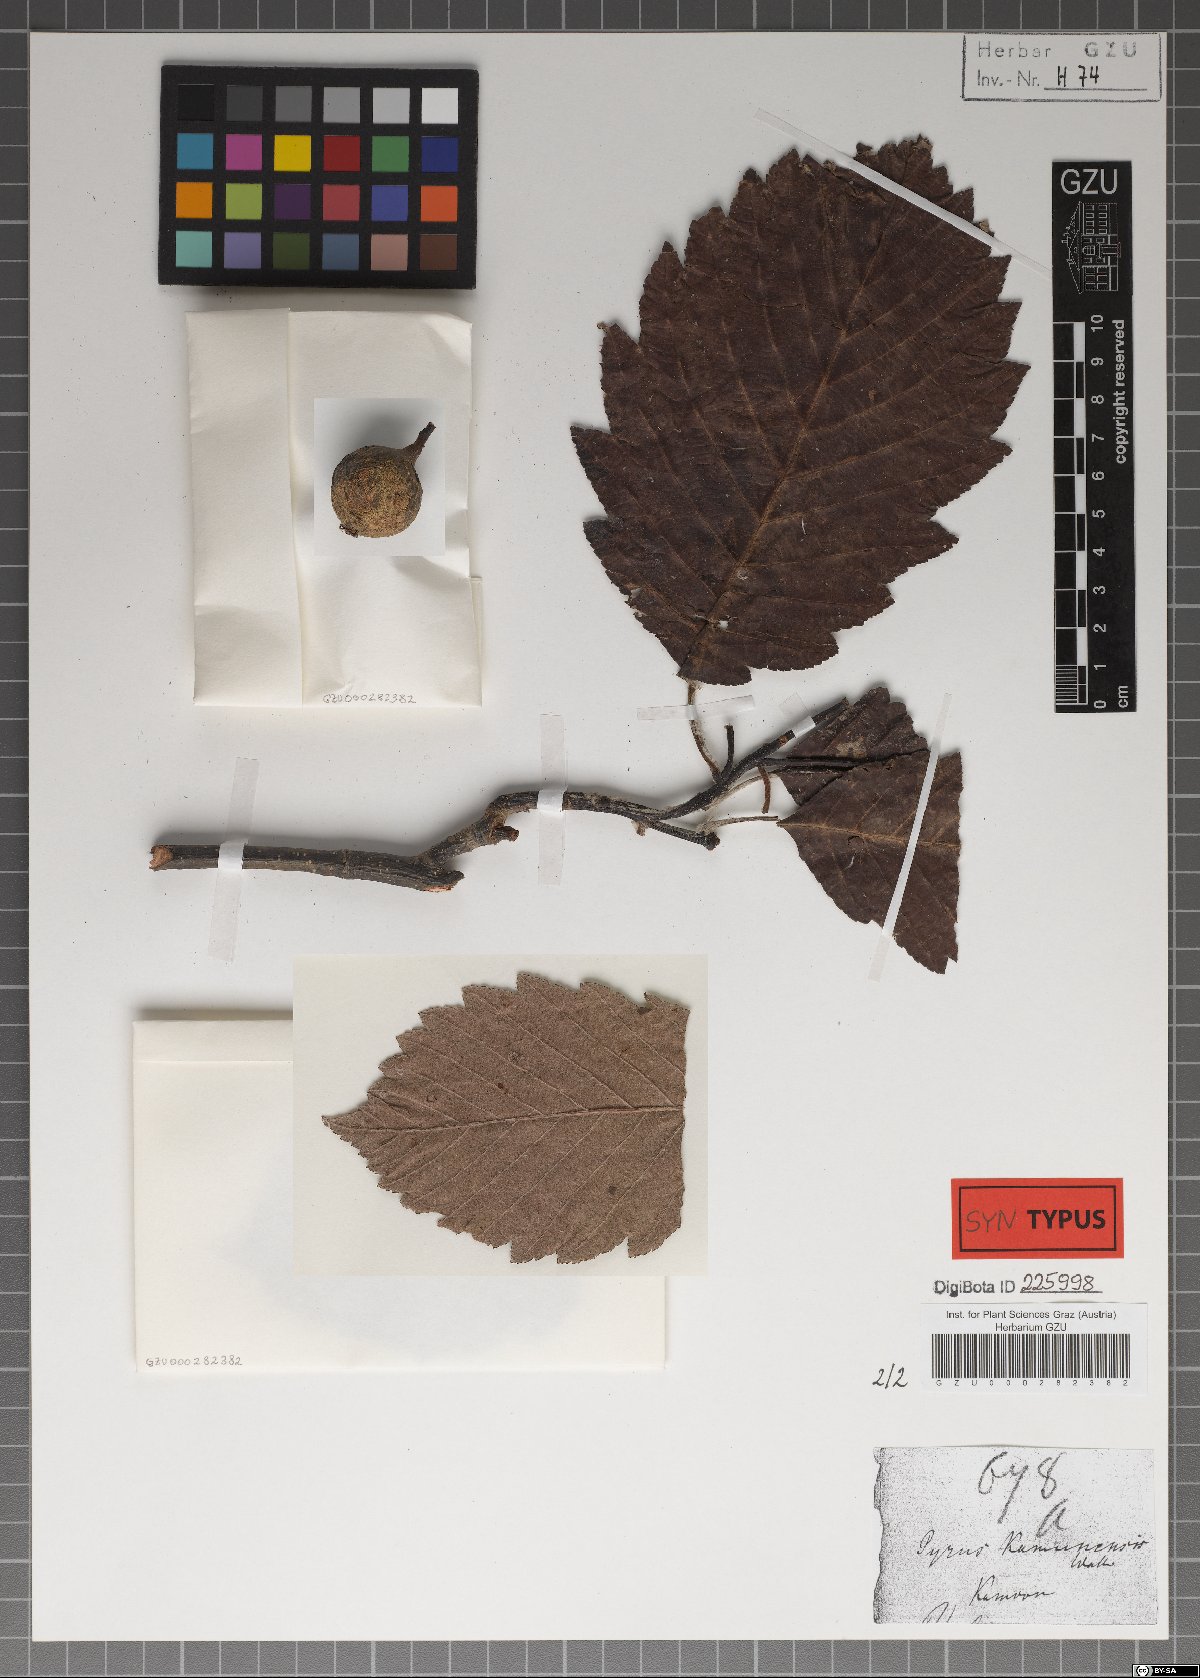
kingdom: Plantae
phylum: Tracheophyta
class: Magnoliopsida
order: Rosales
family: Rosaceae
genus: Sorbus
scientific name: Sorbus lanata
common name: Hairy rowan
